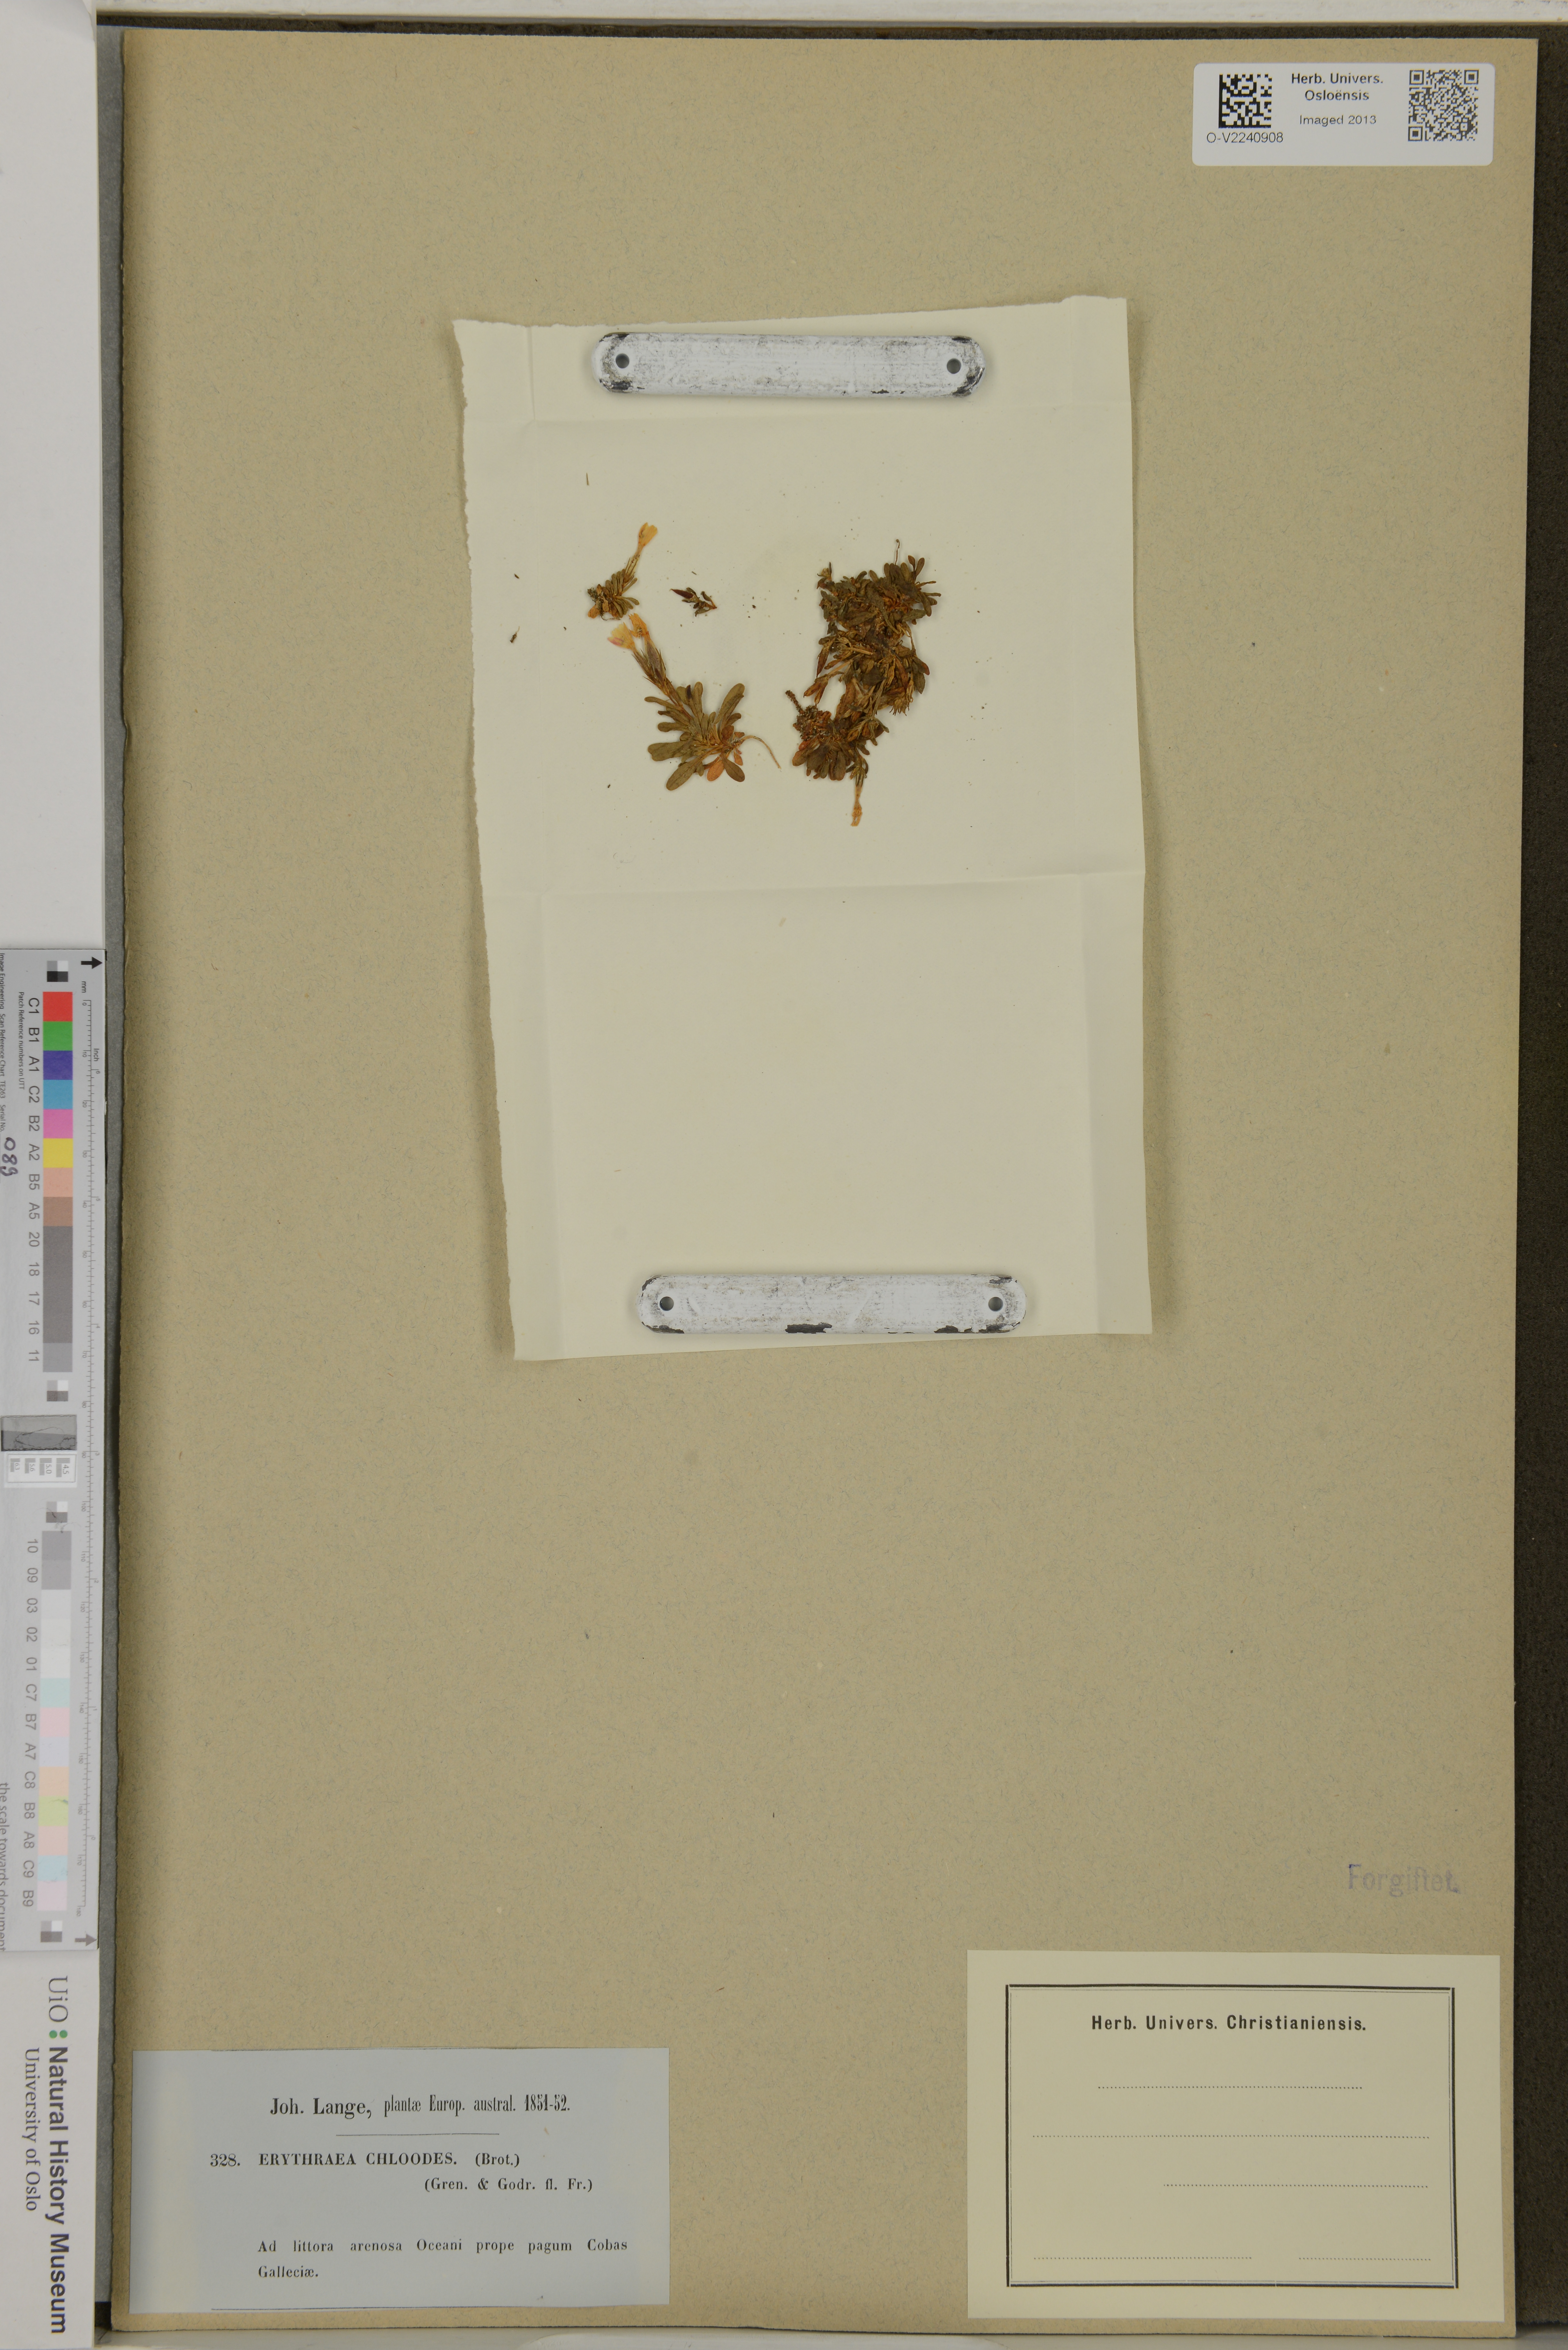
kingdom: Plantae
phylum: Tracheophyta
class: Magnoliopsida
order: Gentianales
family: Gentianaceae
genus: Centaurium
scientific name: Centaurium chloodes
